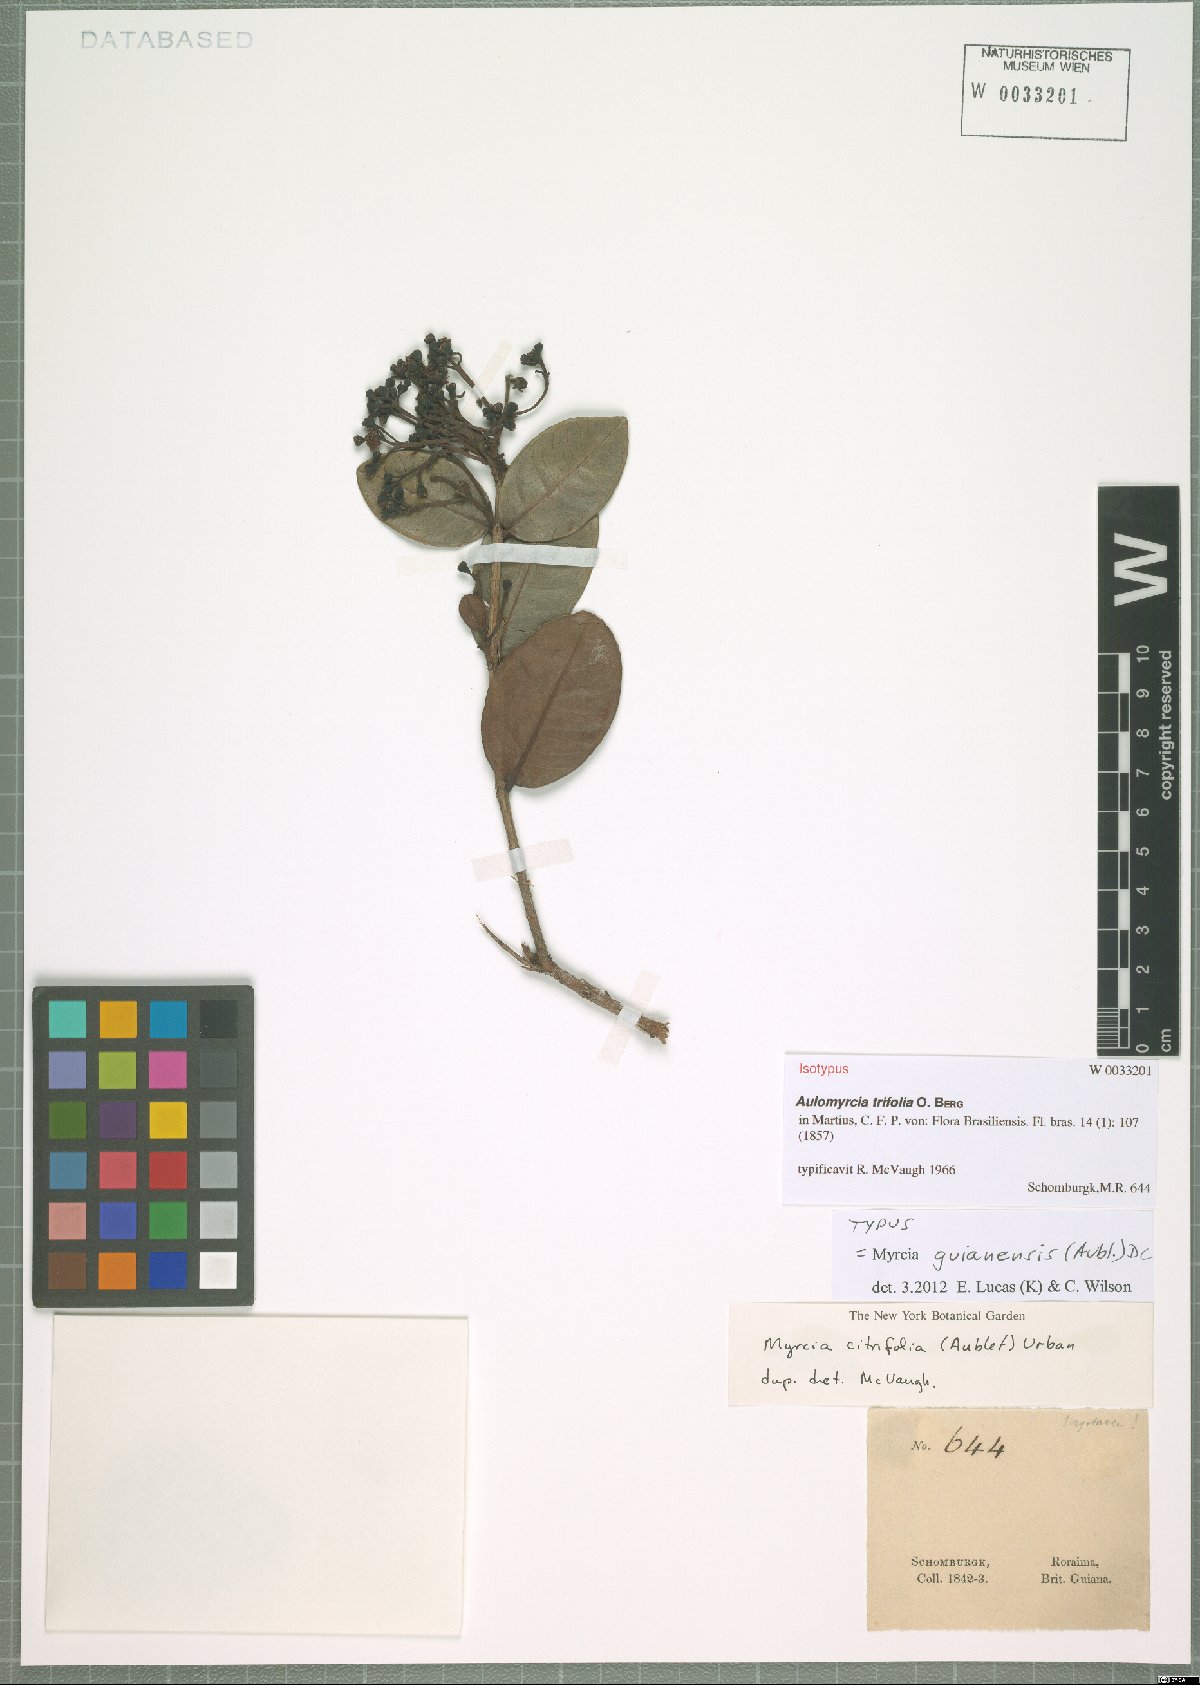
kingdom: Plantae
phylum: Tracheophyta
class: Magnoliopsida
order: Myrtales
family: Myrtaceae
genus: Myrcia
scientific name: Myrcia guianensis
